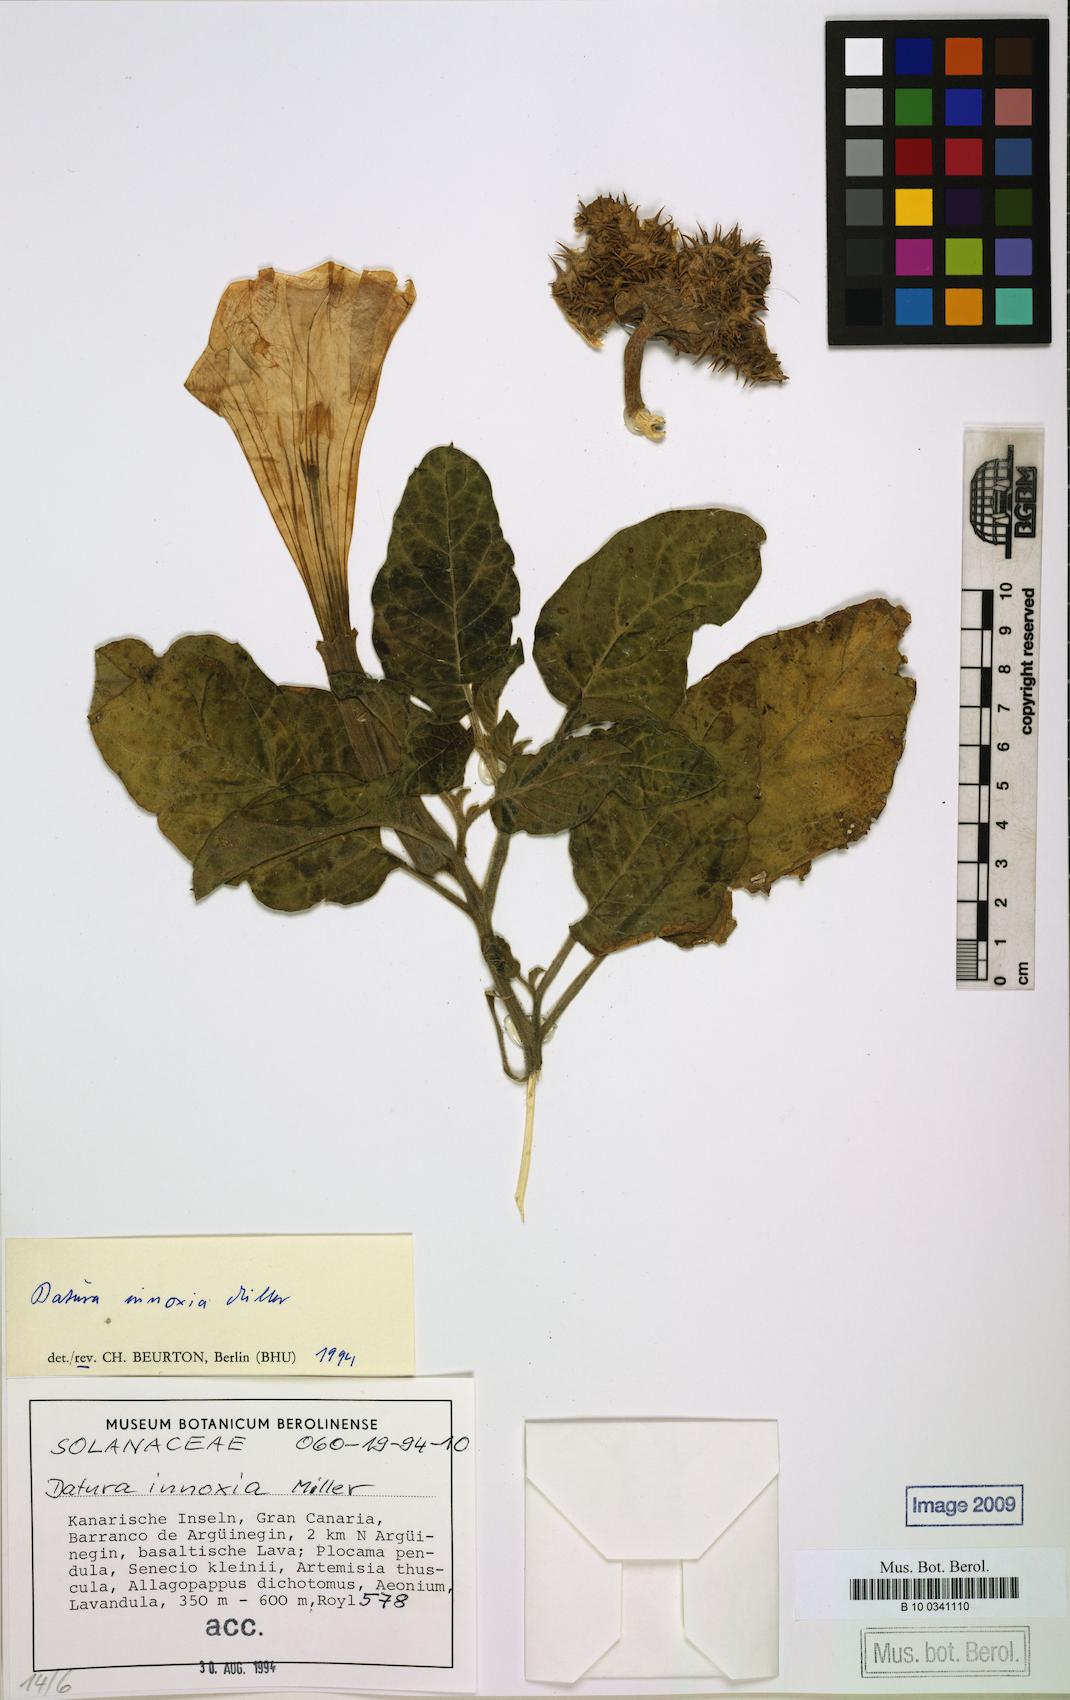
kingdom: Plantae
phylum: Tracheophyta
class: Magnoliopsida
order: Solanales
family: Solanaceae
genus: Datura
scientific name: Datura innoxia
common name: Downy thorn-apple
